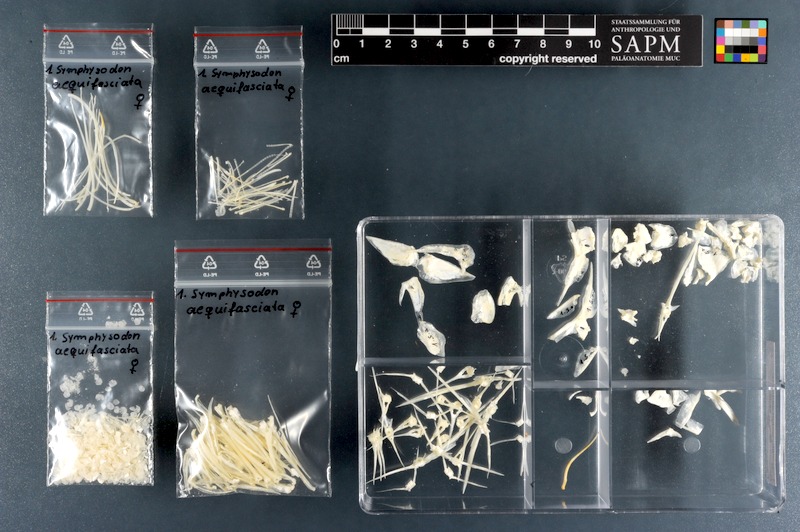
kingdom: Animalia
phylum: Chordata
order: Perciformes
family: Cichlidae
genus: Symphysodon
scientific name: Symphysodon aequifasciatus
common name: Blue discus
